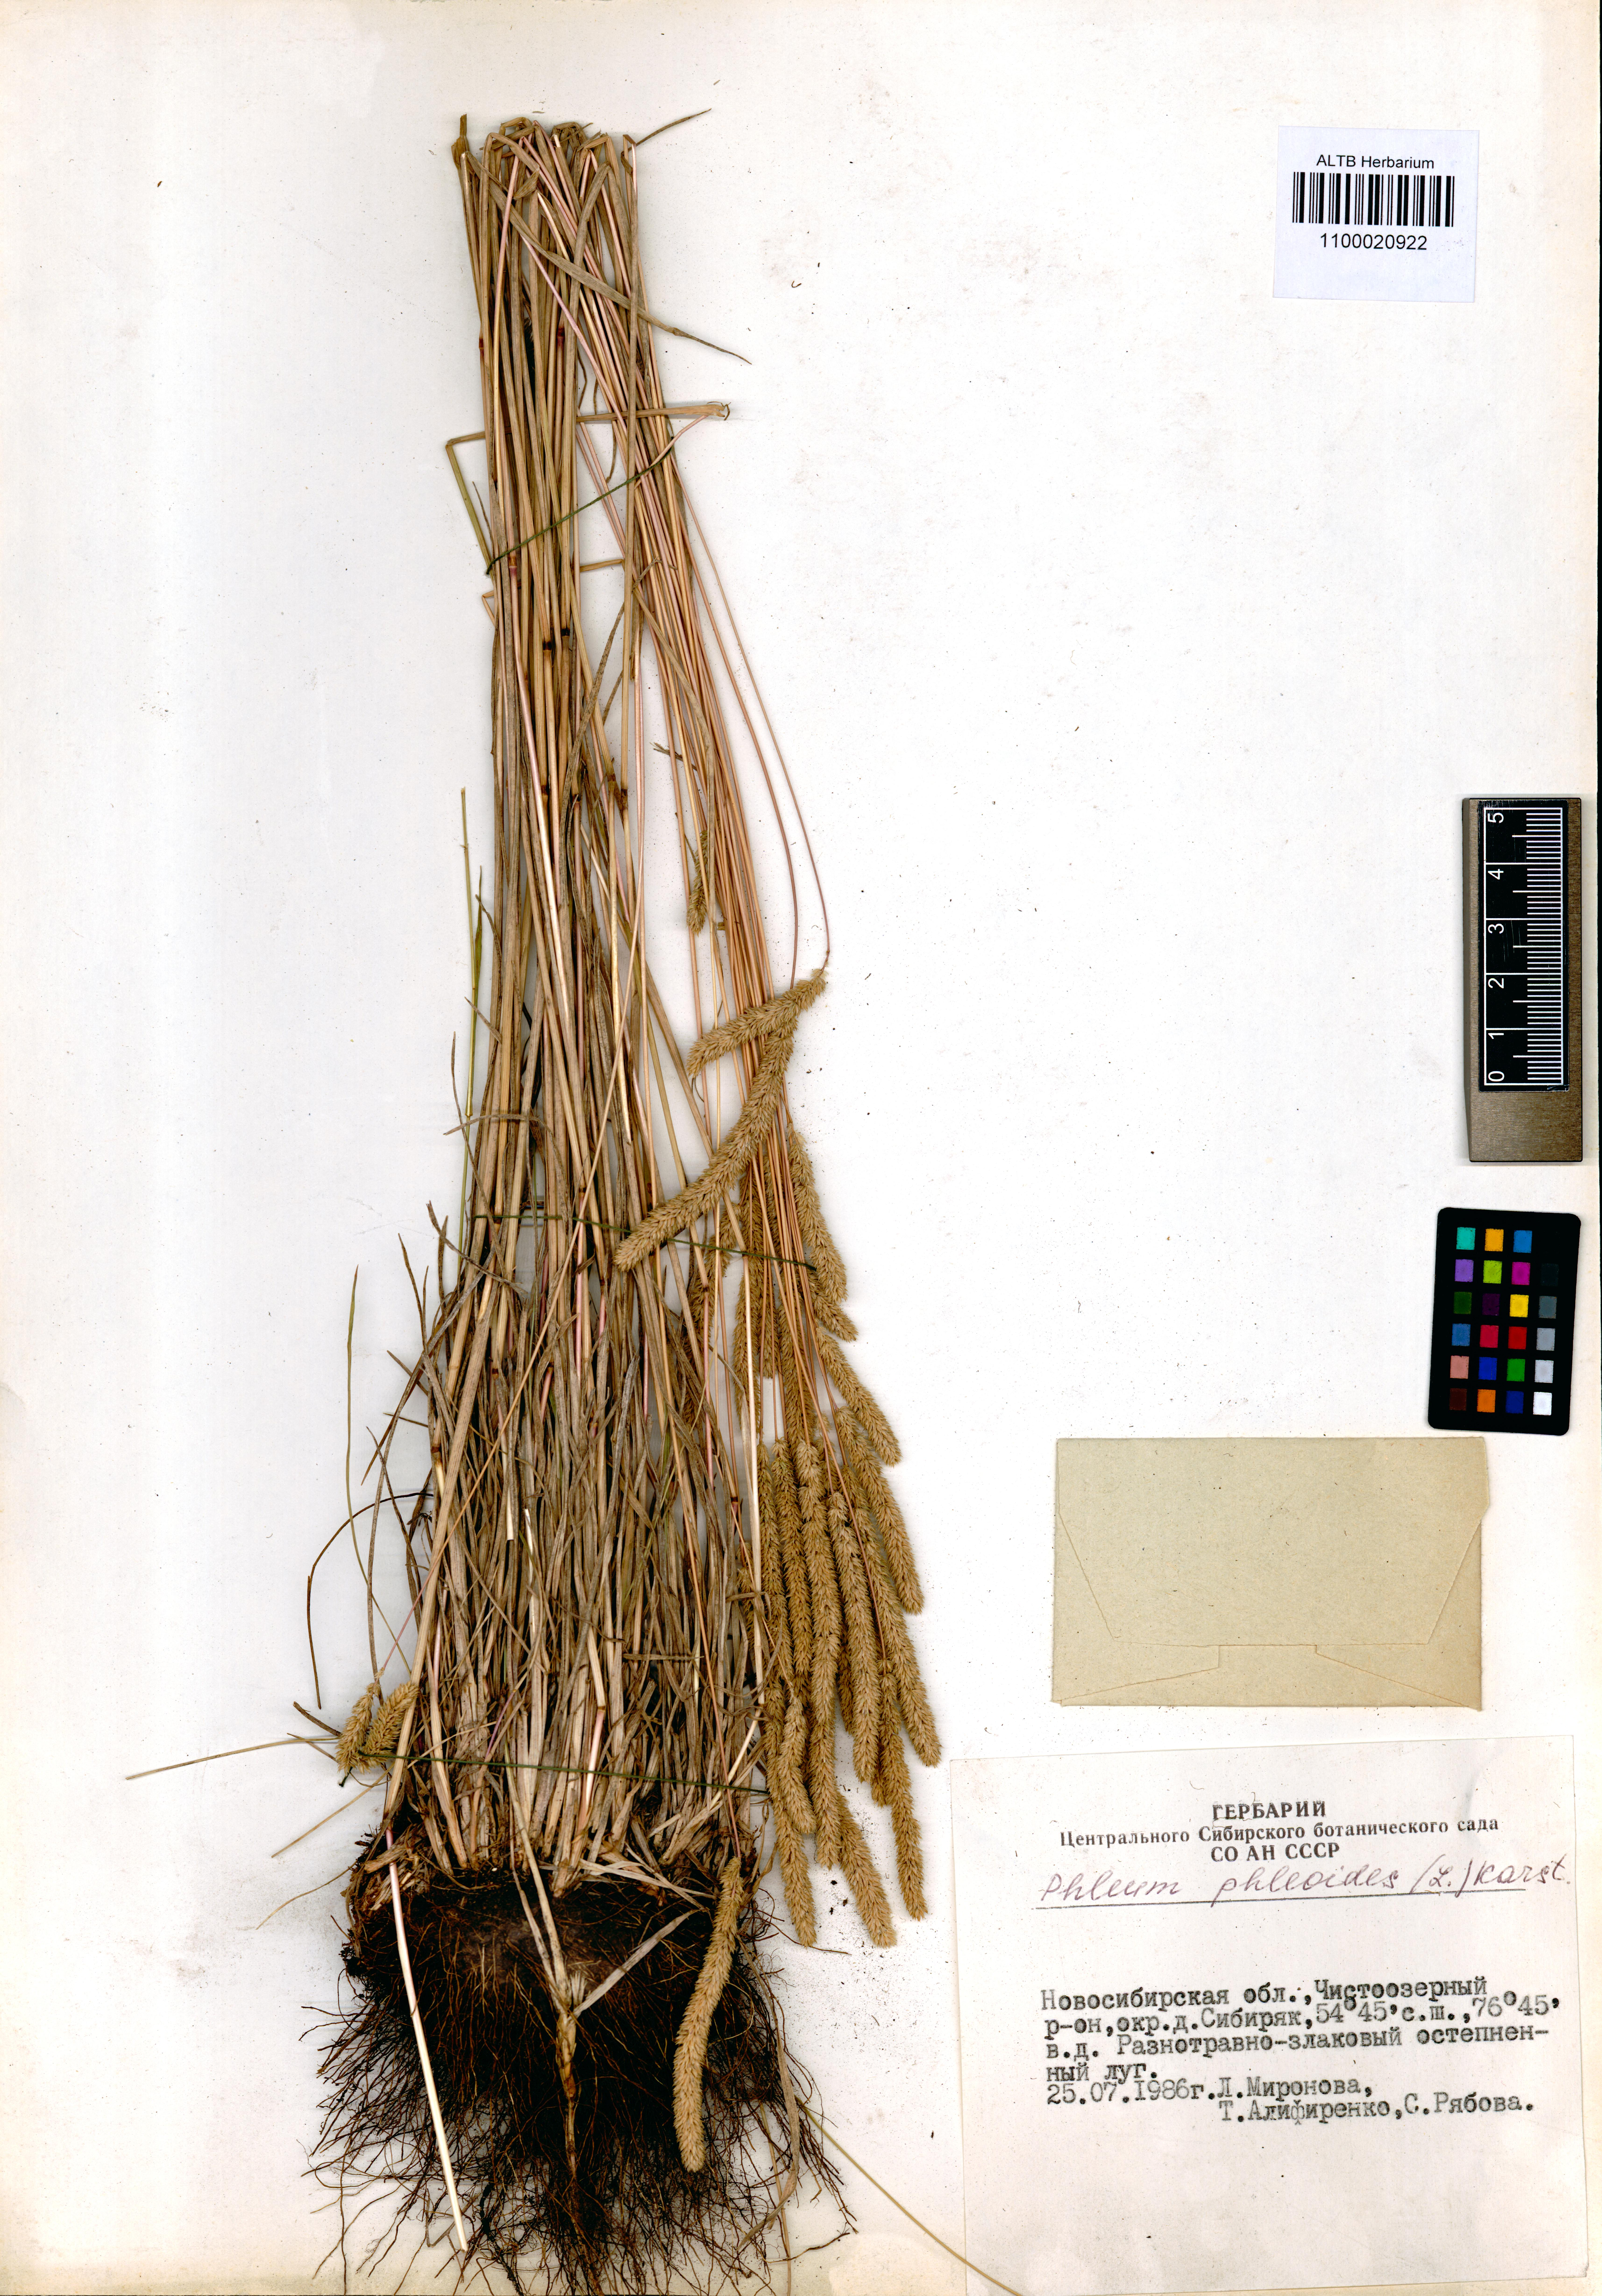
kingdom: Plantae
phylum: Tracheophyta
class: Liliopsida
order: Poales
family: Poaceae
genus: Phleum
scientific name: Phleum phleoides
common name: Purple-stem cat's-tail
